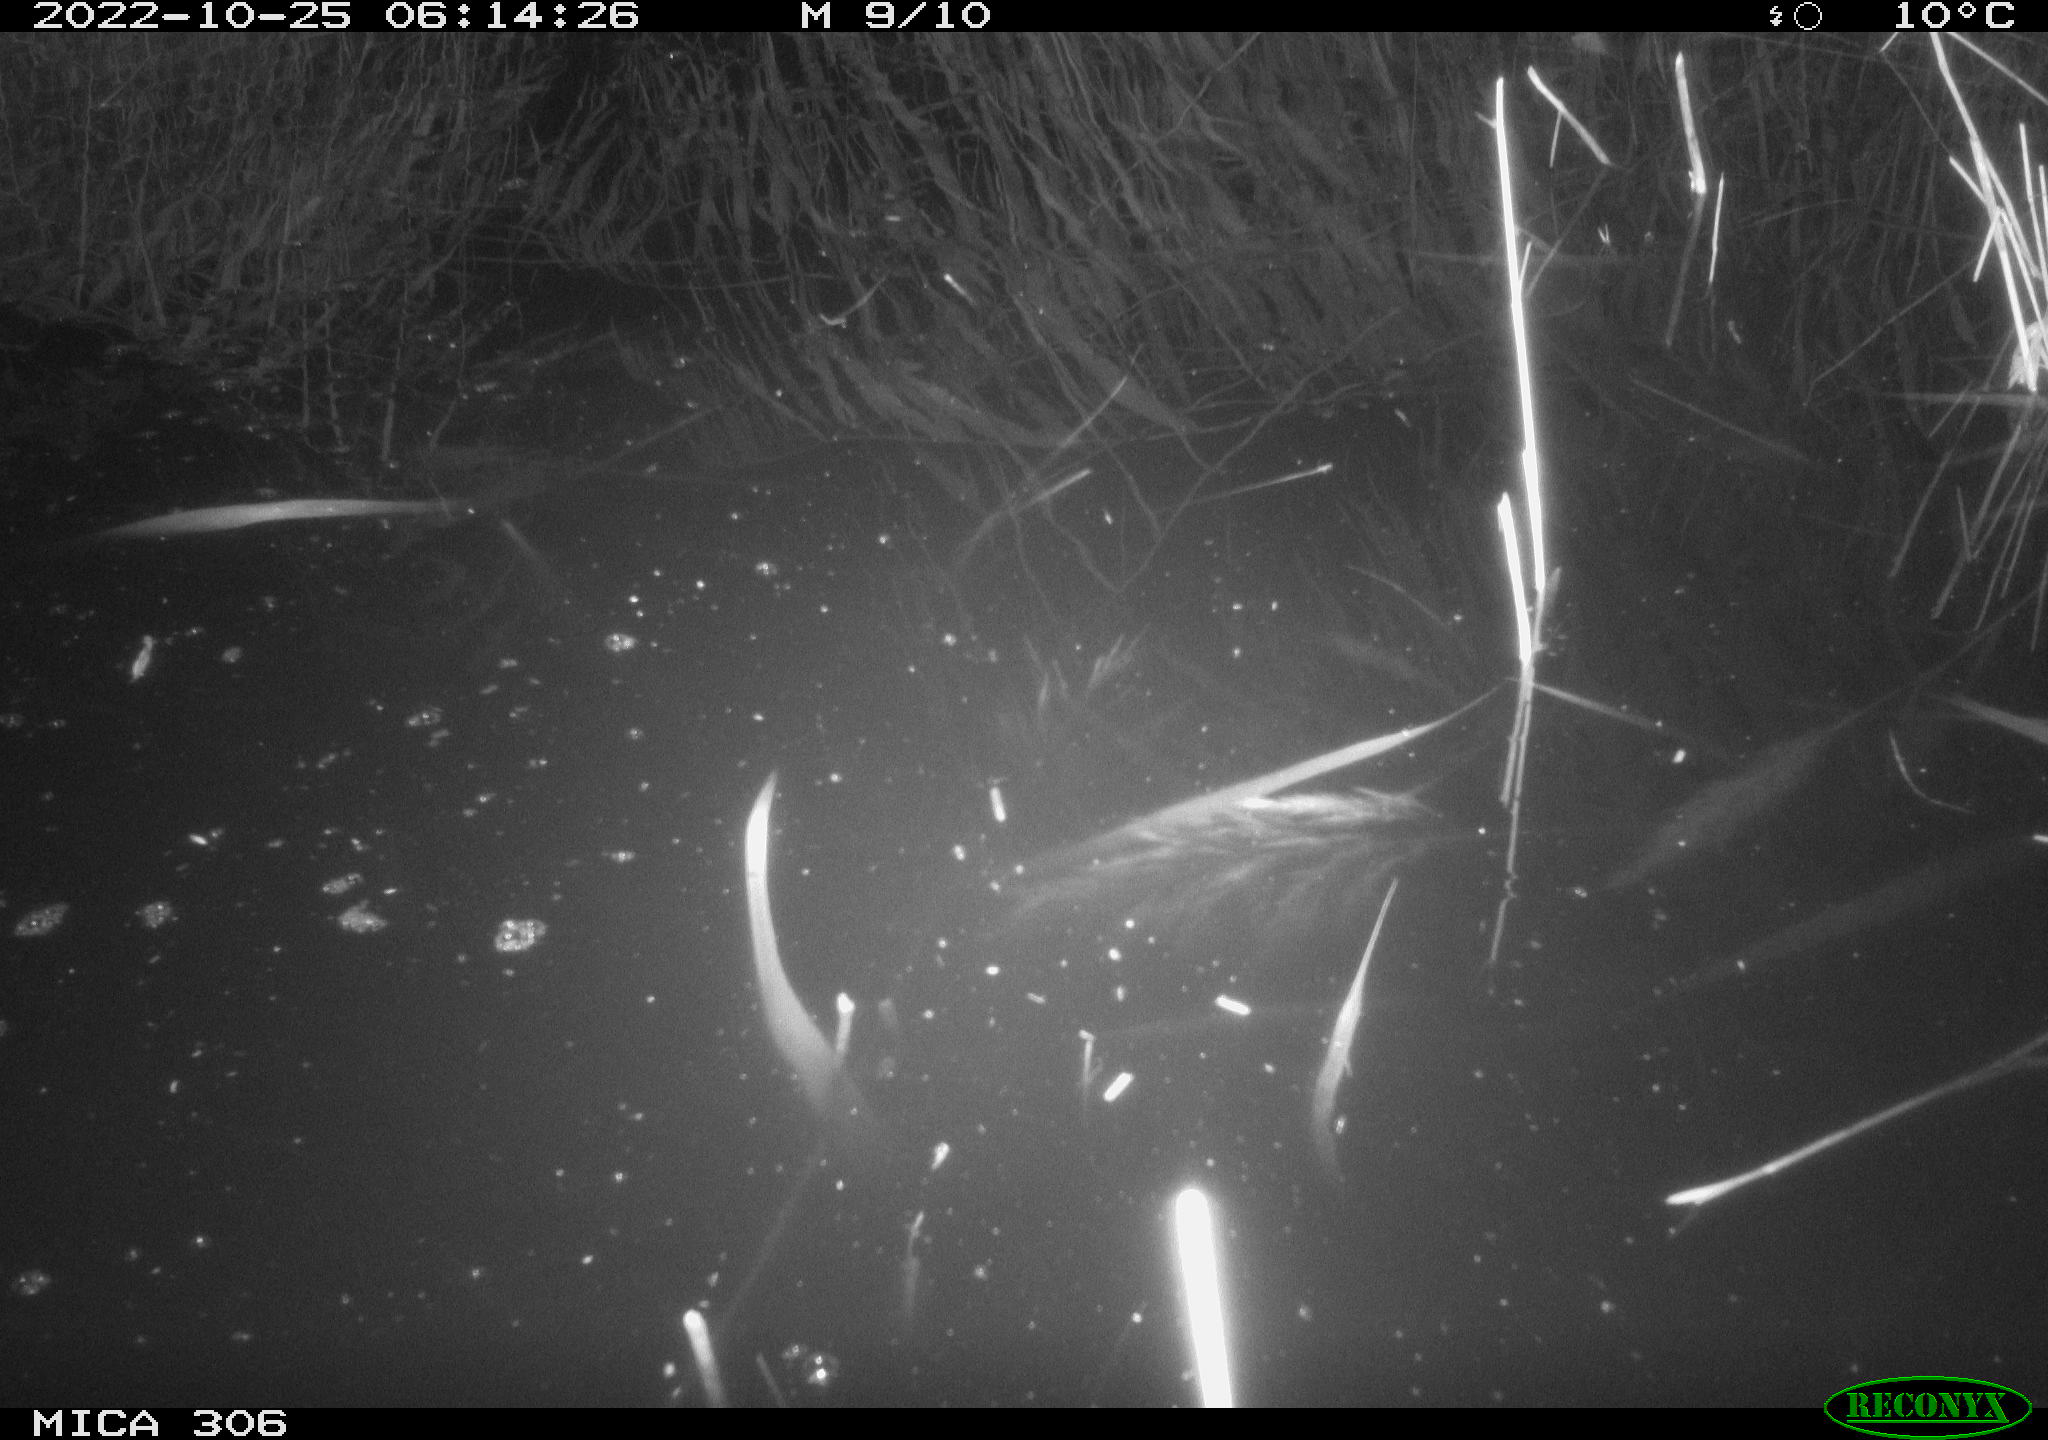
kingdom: Animalia
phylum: Chordata
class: Mammalia
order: Rodentia
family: Muridae
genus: Rattus
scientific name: Rattus norvegicus
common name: Brown rat
